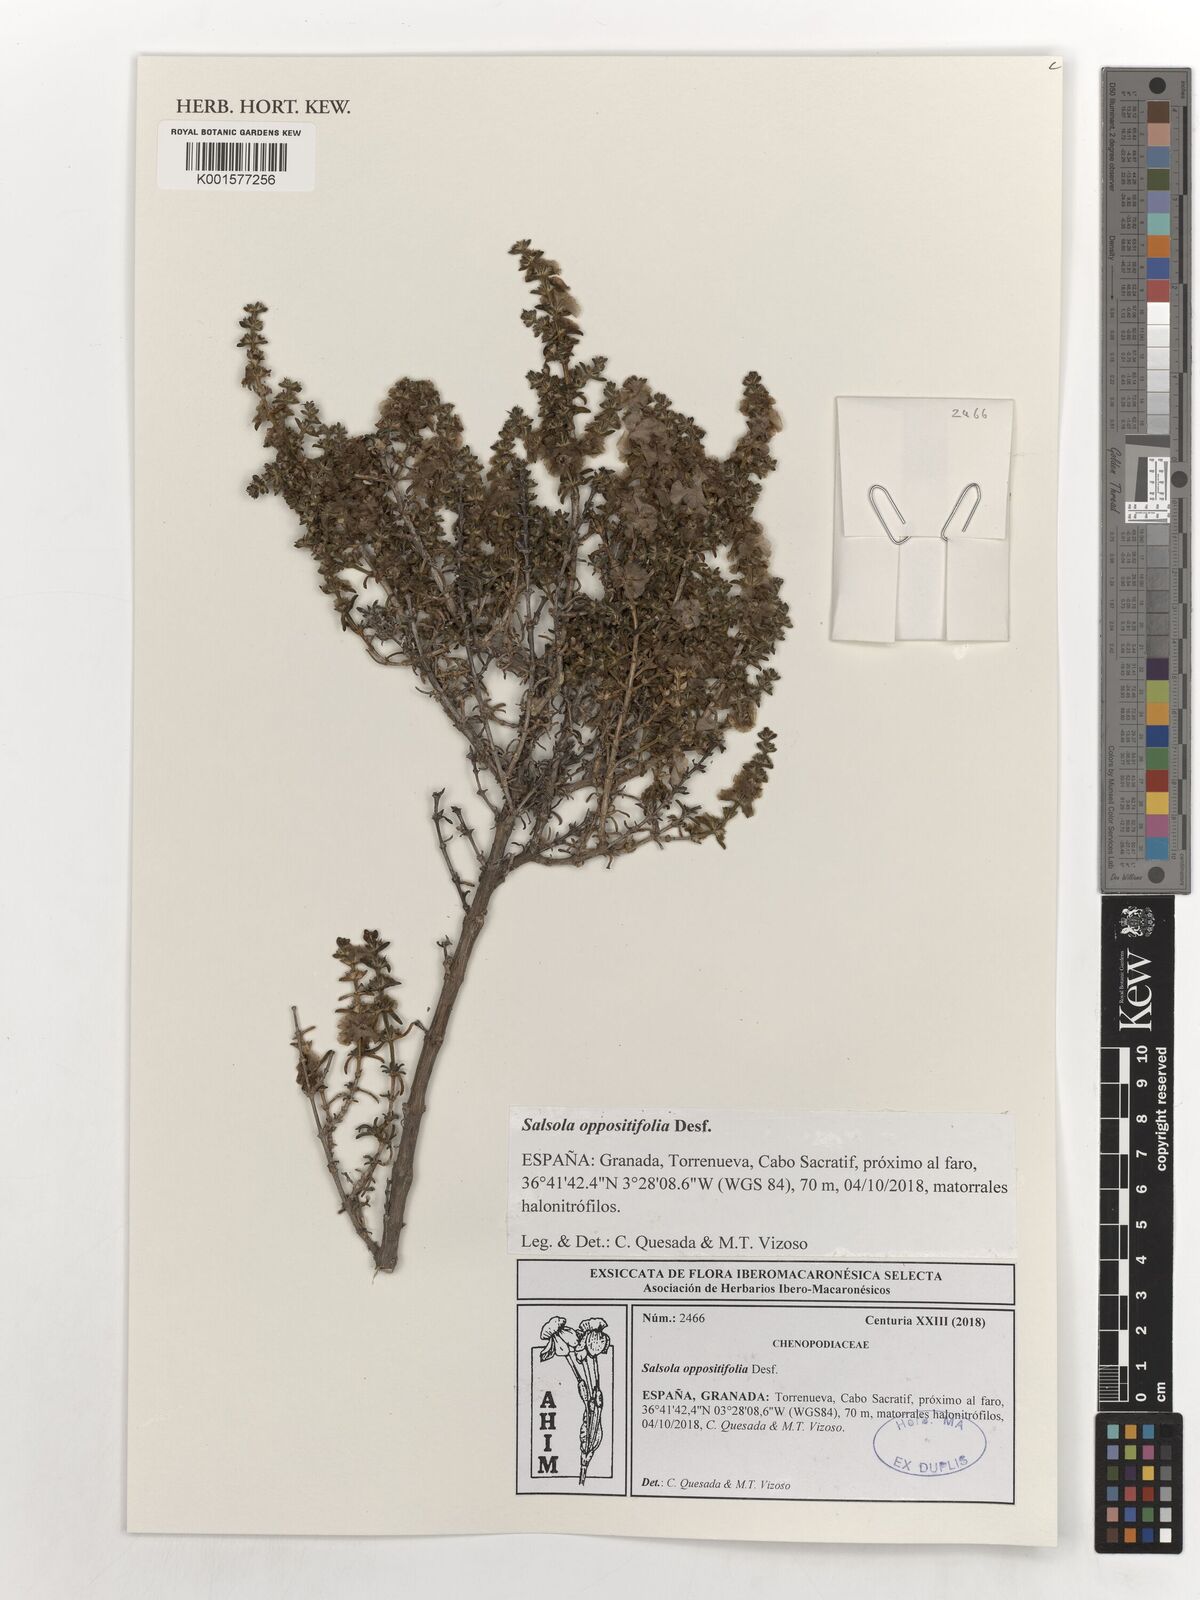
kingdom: Plantae
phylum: Tracheophyta
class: Magnoliopsida
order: Caryophyllales
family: Amaranthaceae
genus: Soda
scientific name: Soda oppositifolia
